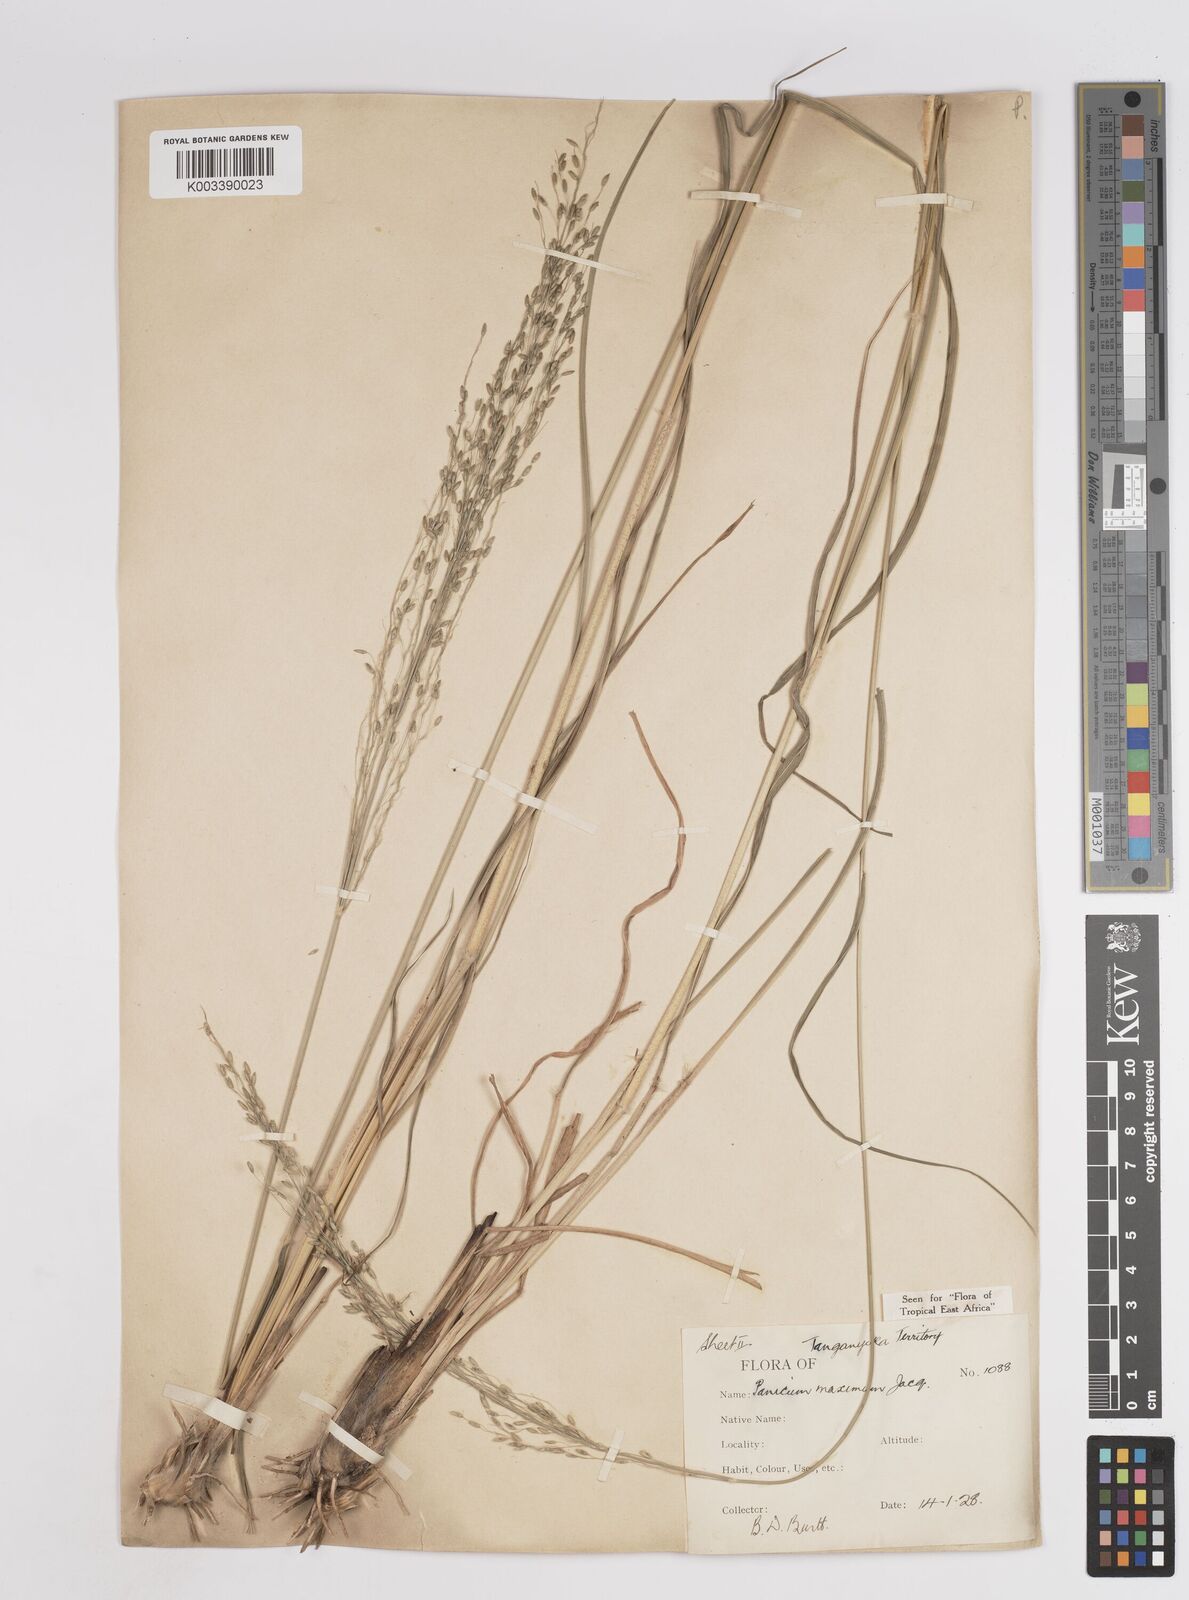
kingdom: Plantae
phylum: Tracheophyta
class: Liliopsida
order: Poales
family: Poaceae
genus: Megathyrsus
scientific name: Megathyrsus maximus
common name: Guineagrass
